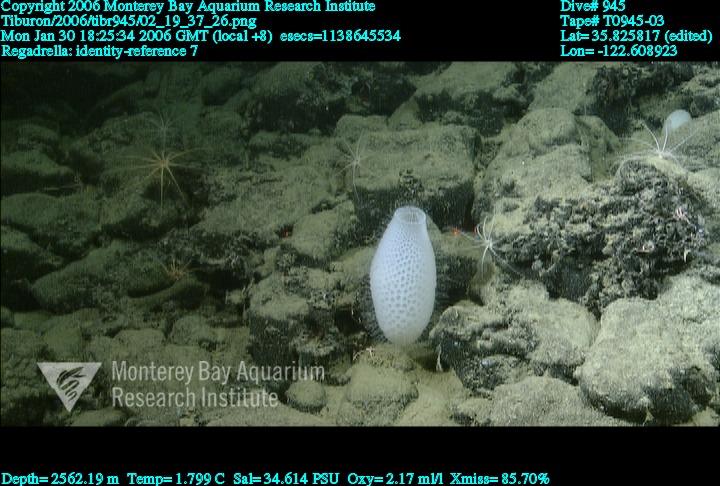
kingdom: Animalia
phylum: Porifera
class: Hexactinellida
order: Lyssacinosida
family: Euplectellidae
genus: Regadrella
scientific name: Regadrella
